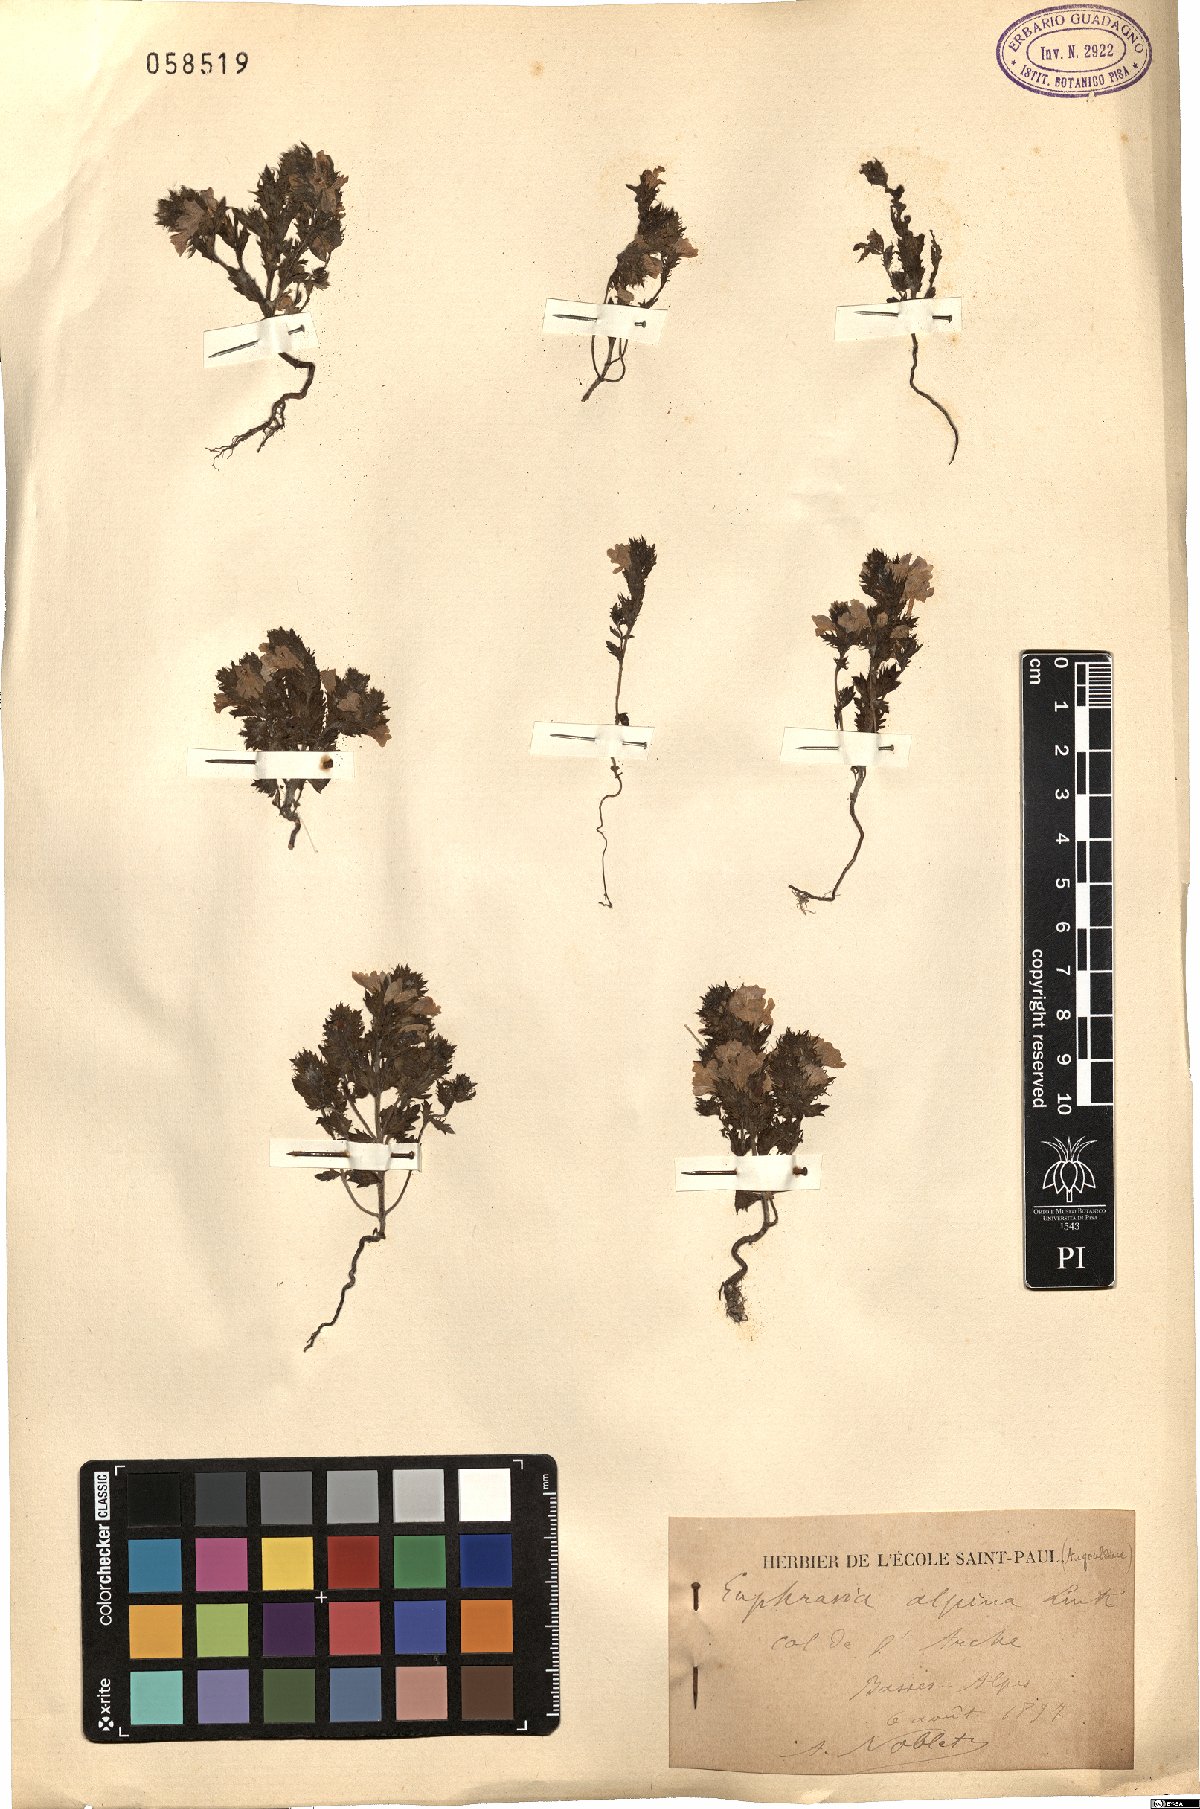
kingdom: Plantae
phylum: Tracheophyta
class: Magnoliopsida
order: Lamiales
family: Orobanchaceae
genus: Euphrasia
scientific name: Euphrasia alpina
